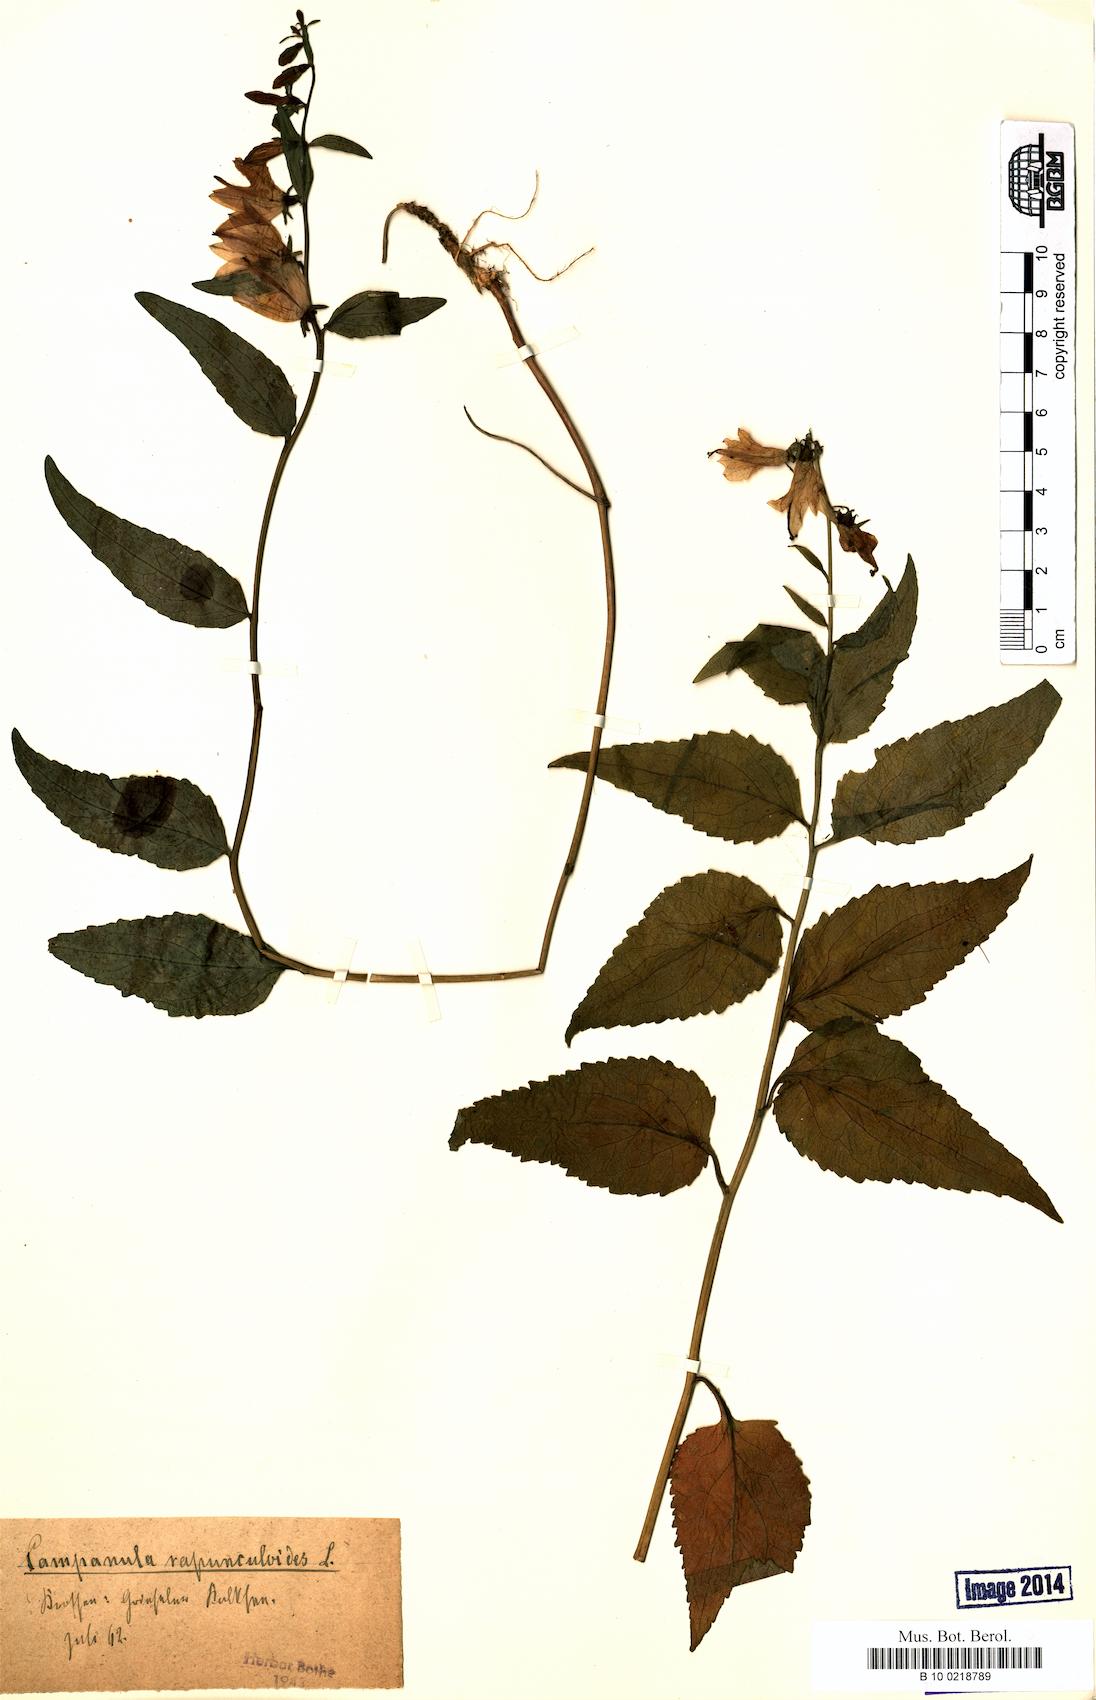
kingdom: Plantae
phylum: Tracheophyta
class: Magnoliopsida
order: Asterales
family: Campanulaceae
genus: Campanula
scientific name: Campanula rapunculoides
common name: Creeping bellflower
